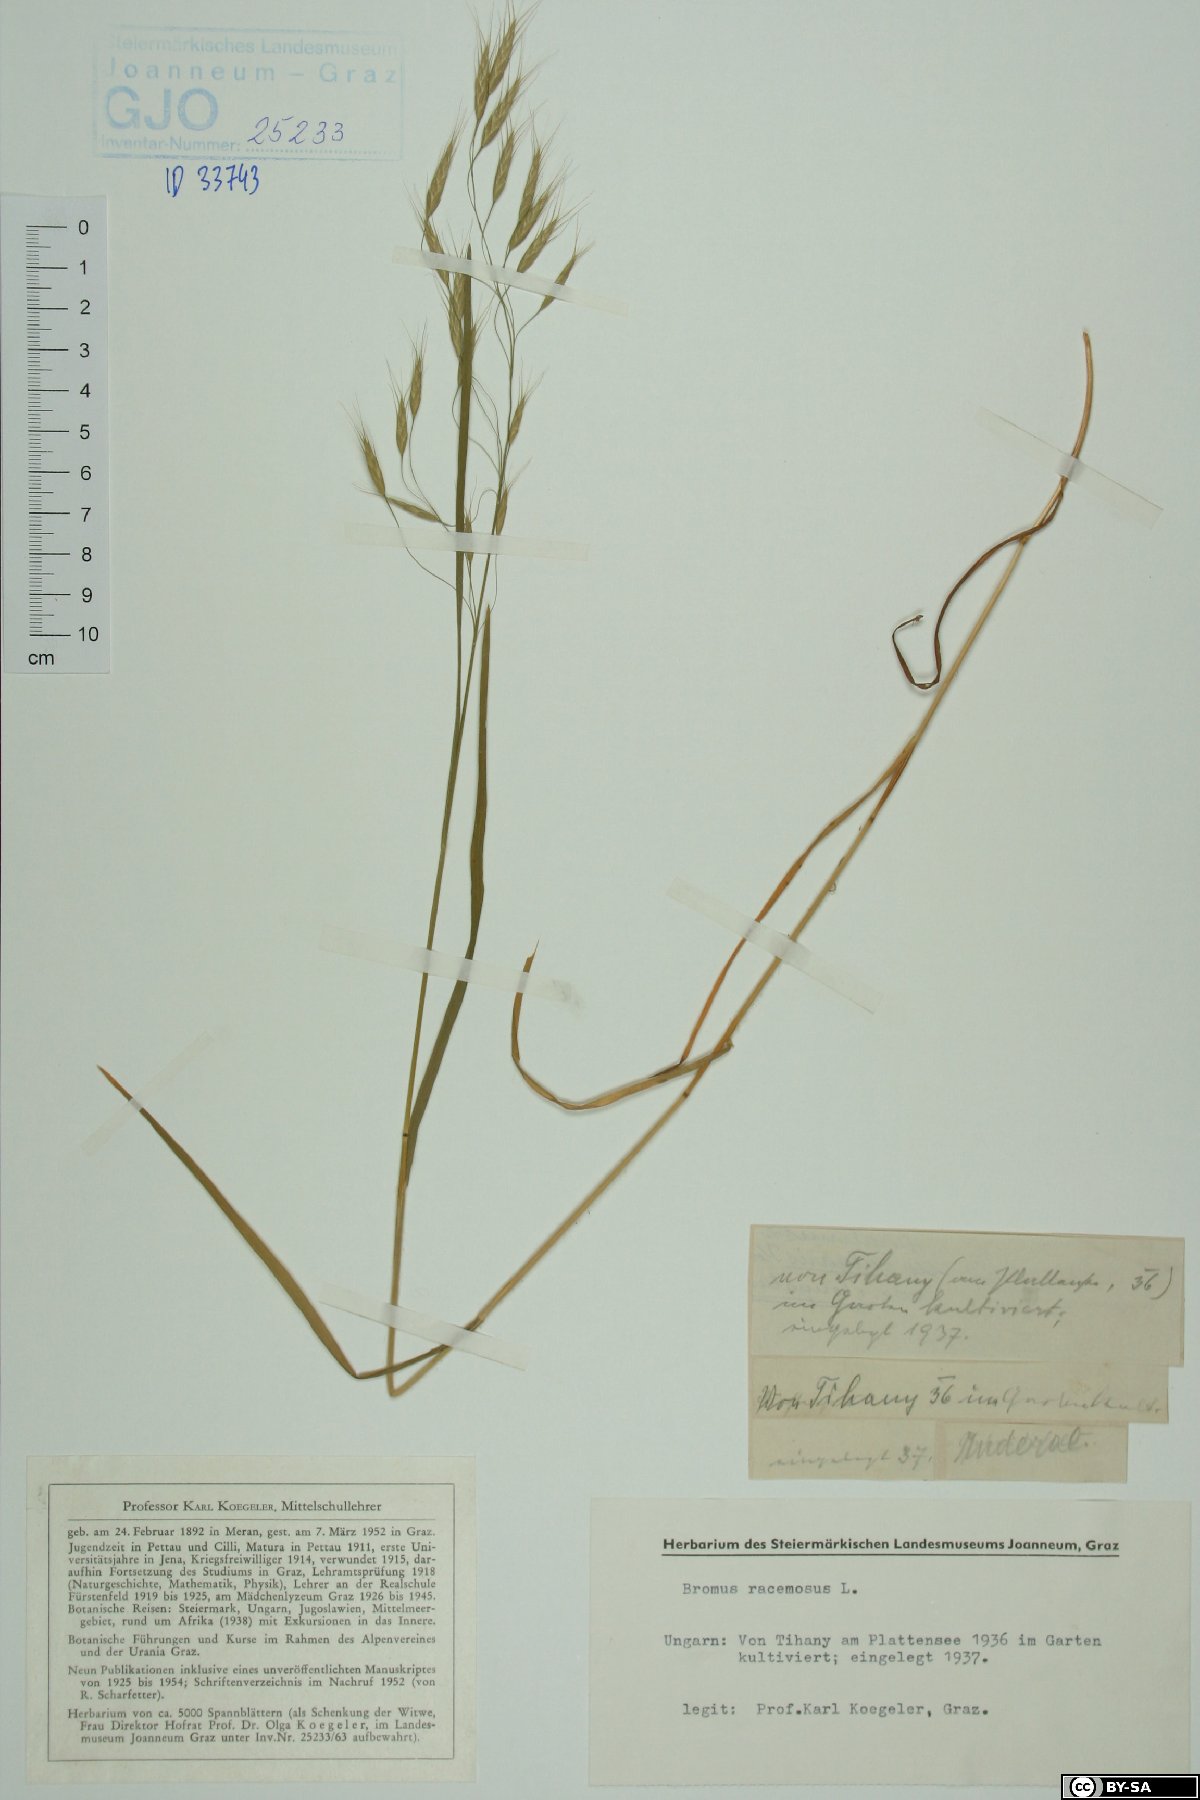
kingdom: Plantae
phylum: Tracheophyta
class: Liliopsida
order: Poales
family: Poaceae
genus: Bromus
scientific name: Bromus racemosus
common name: Bald brome
